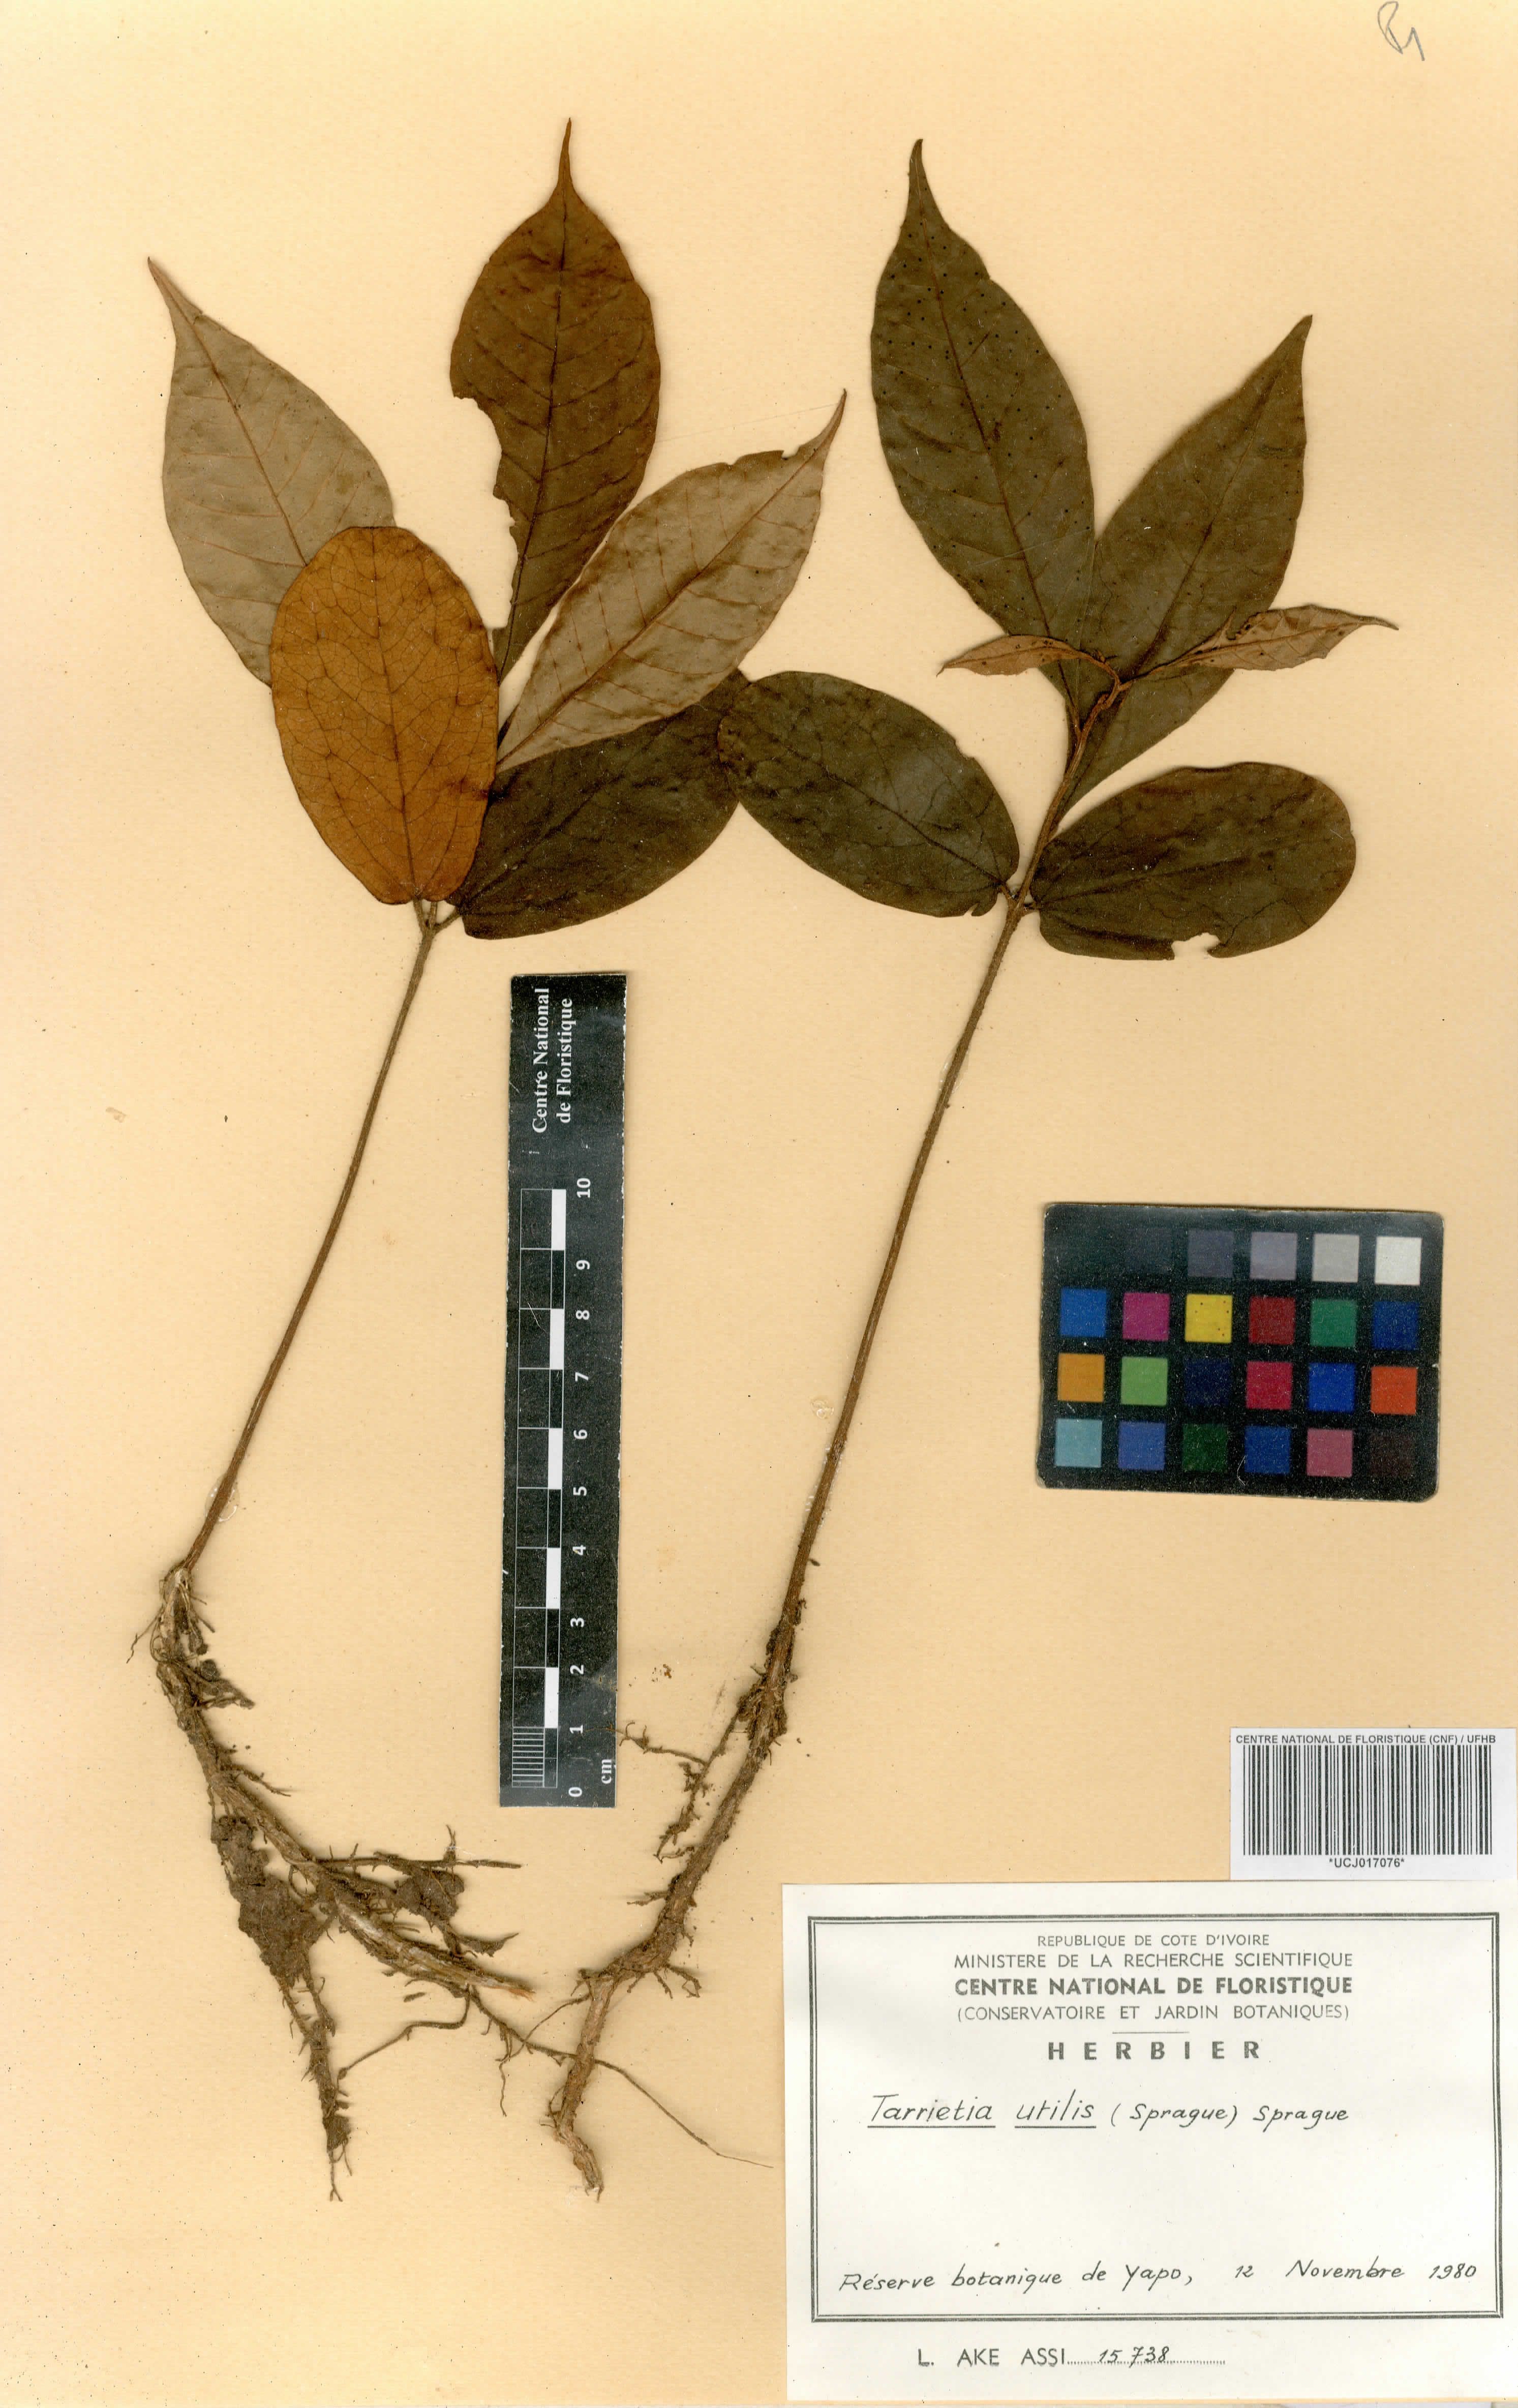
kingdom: Plantae
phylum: Tracheophyta
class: Magnoliopsida
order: Malvales
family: Malvaceae
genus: Heritiera
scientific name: Heritiera utilis
